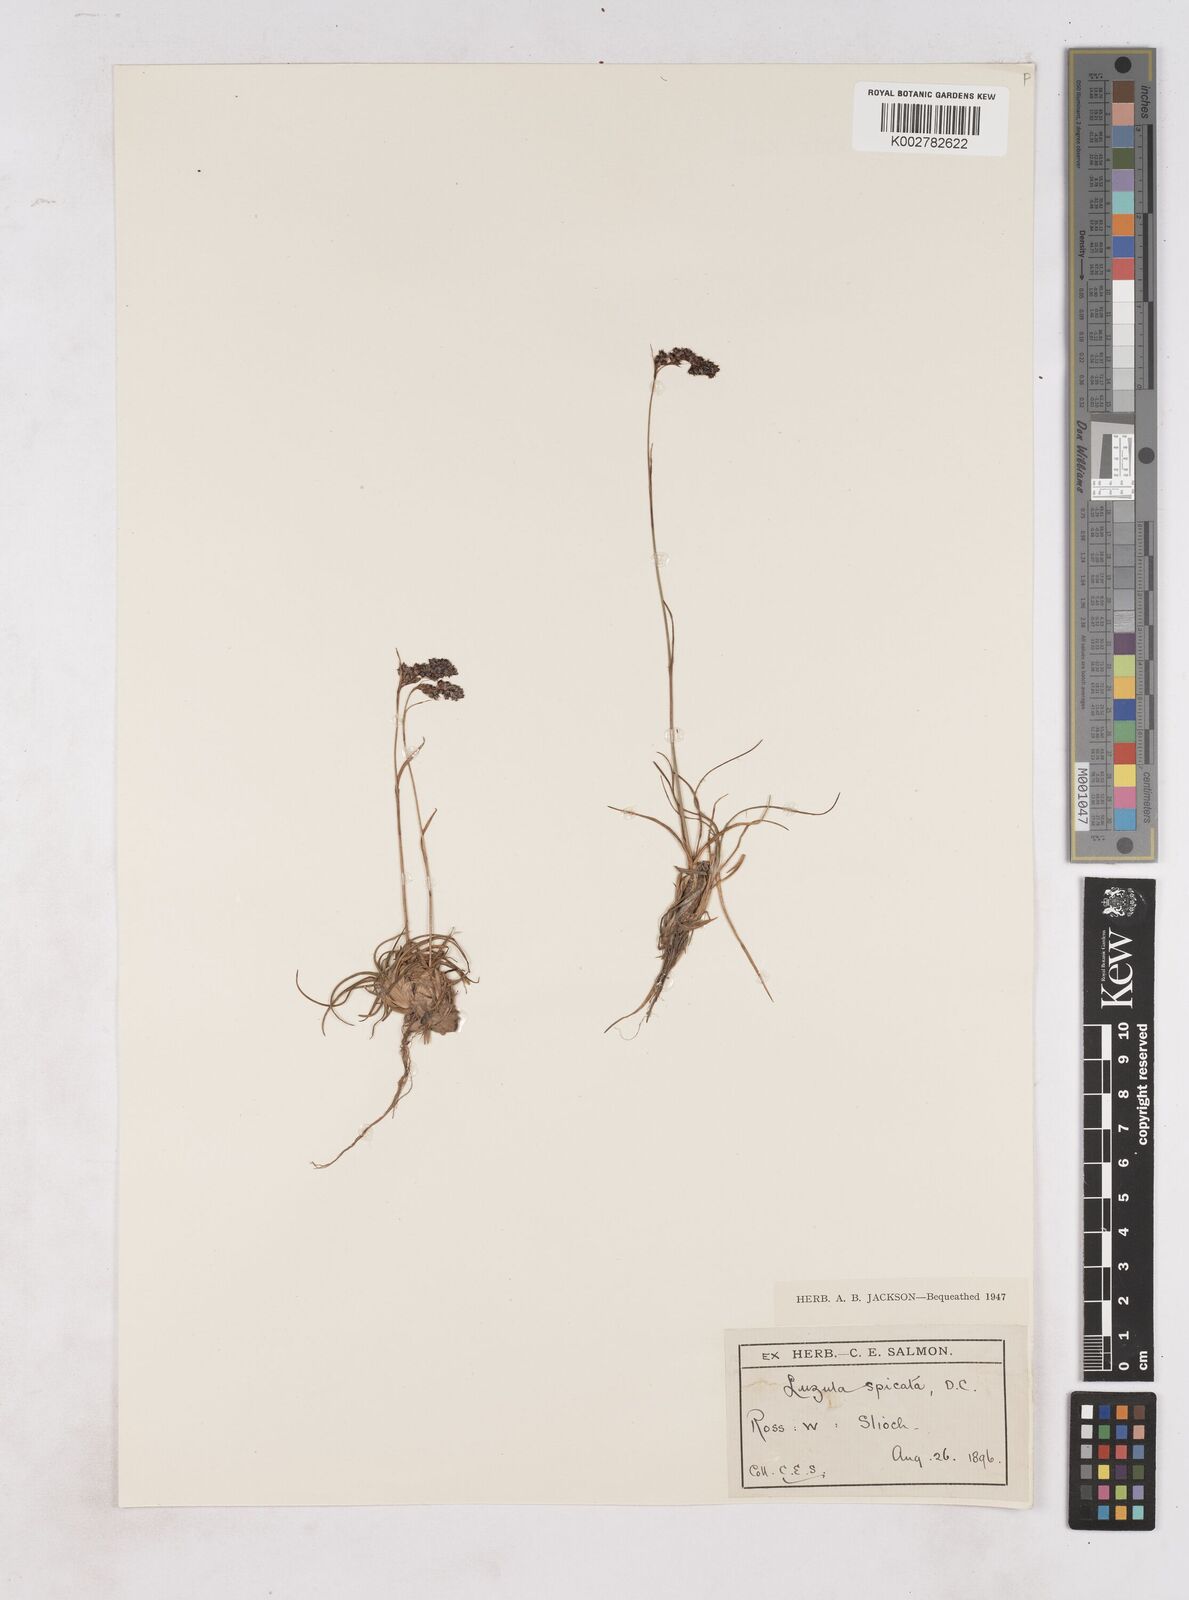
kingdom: Plantae
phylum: Tracheophyta
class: Liliopsida
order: Poales
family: Juncaceae
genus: Luzula
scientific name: Luzula spicata
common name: Spiked wood-rush
